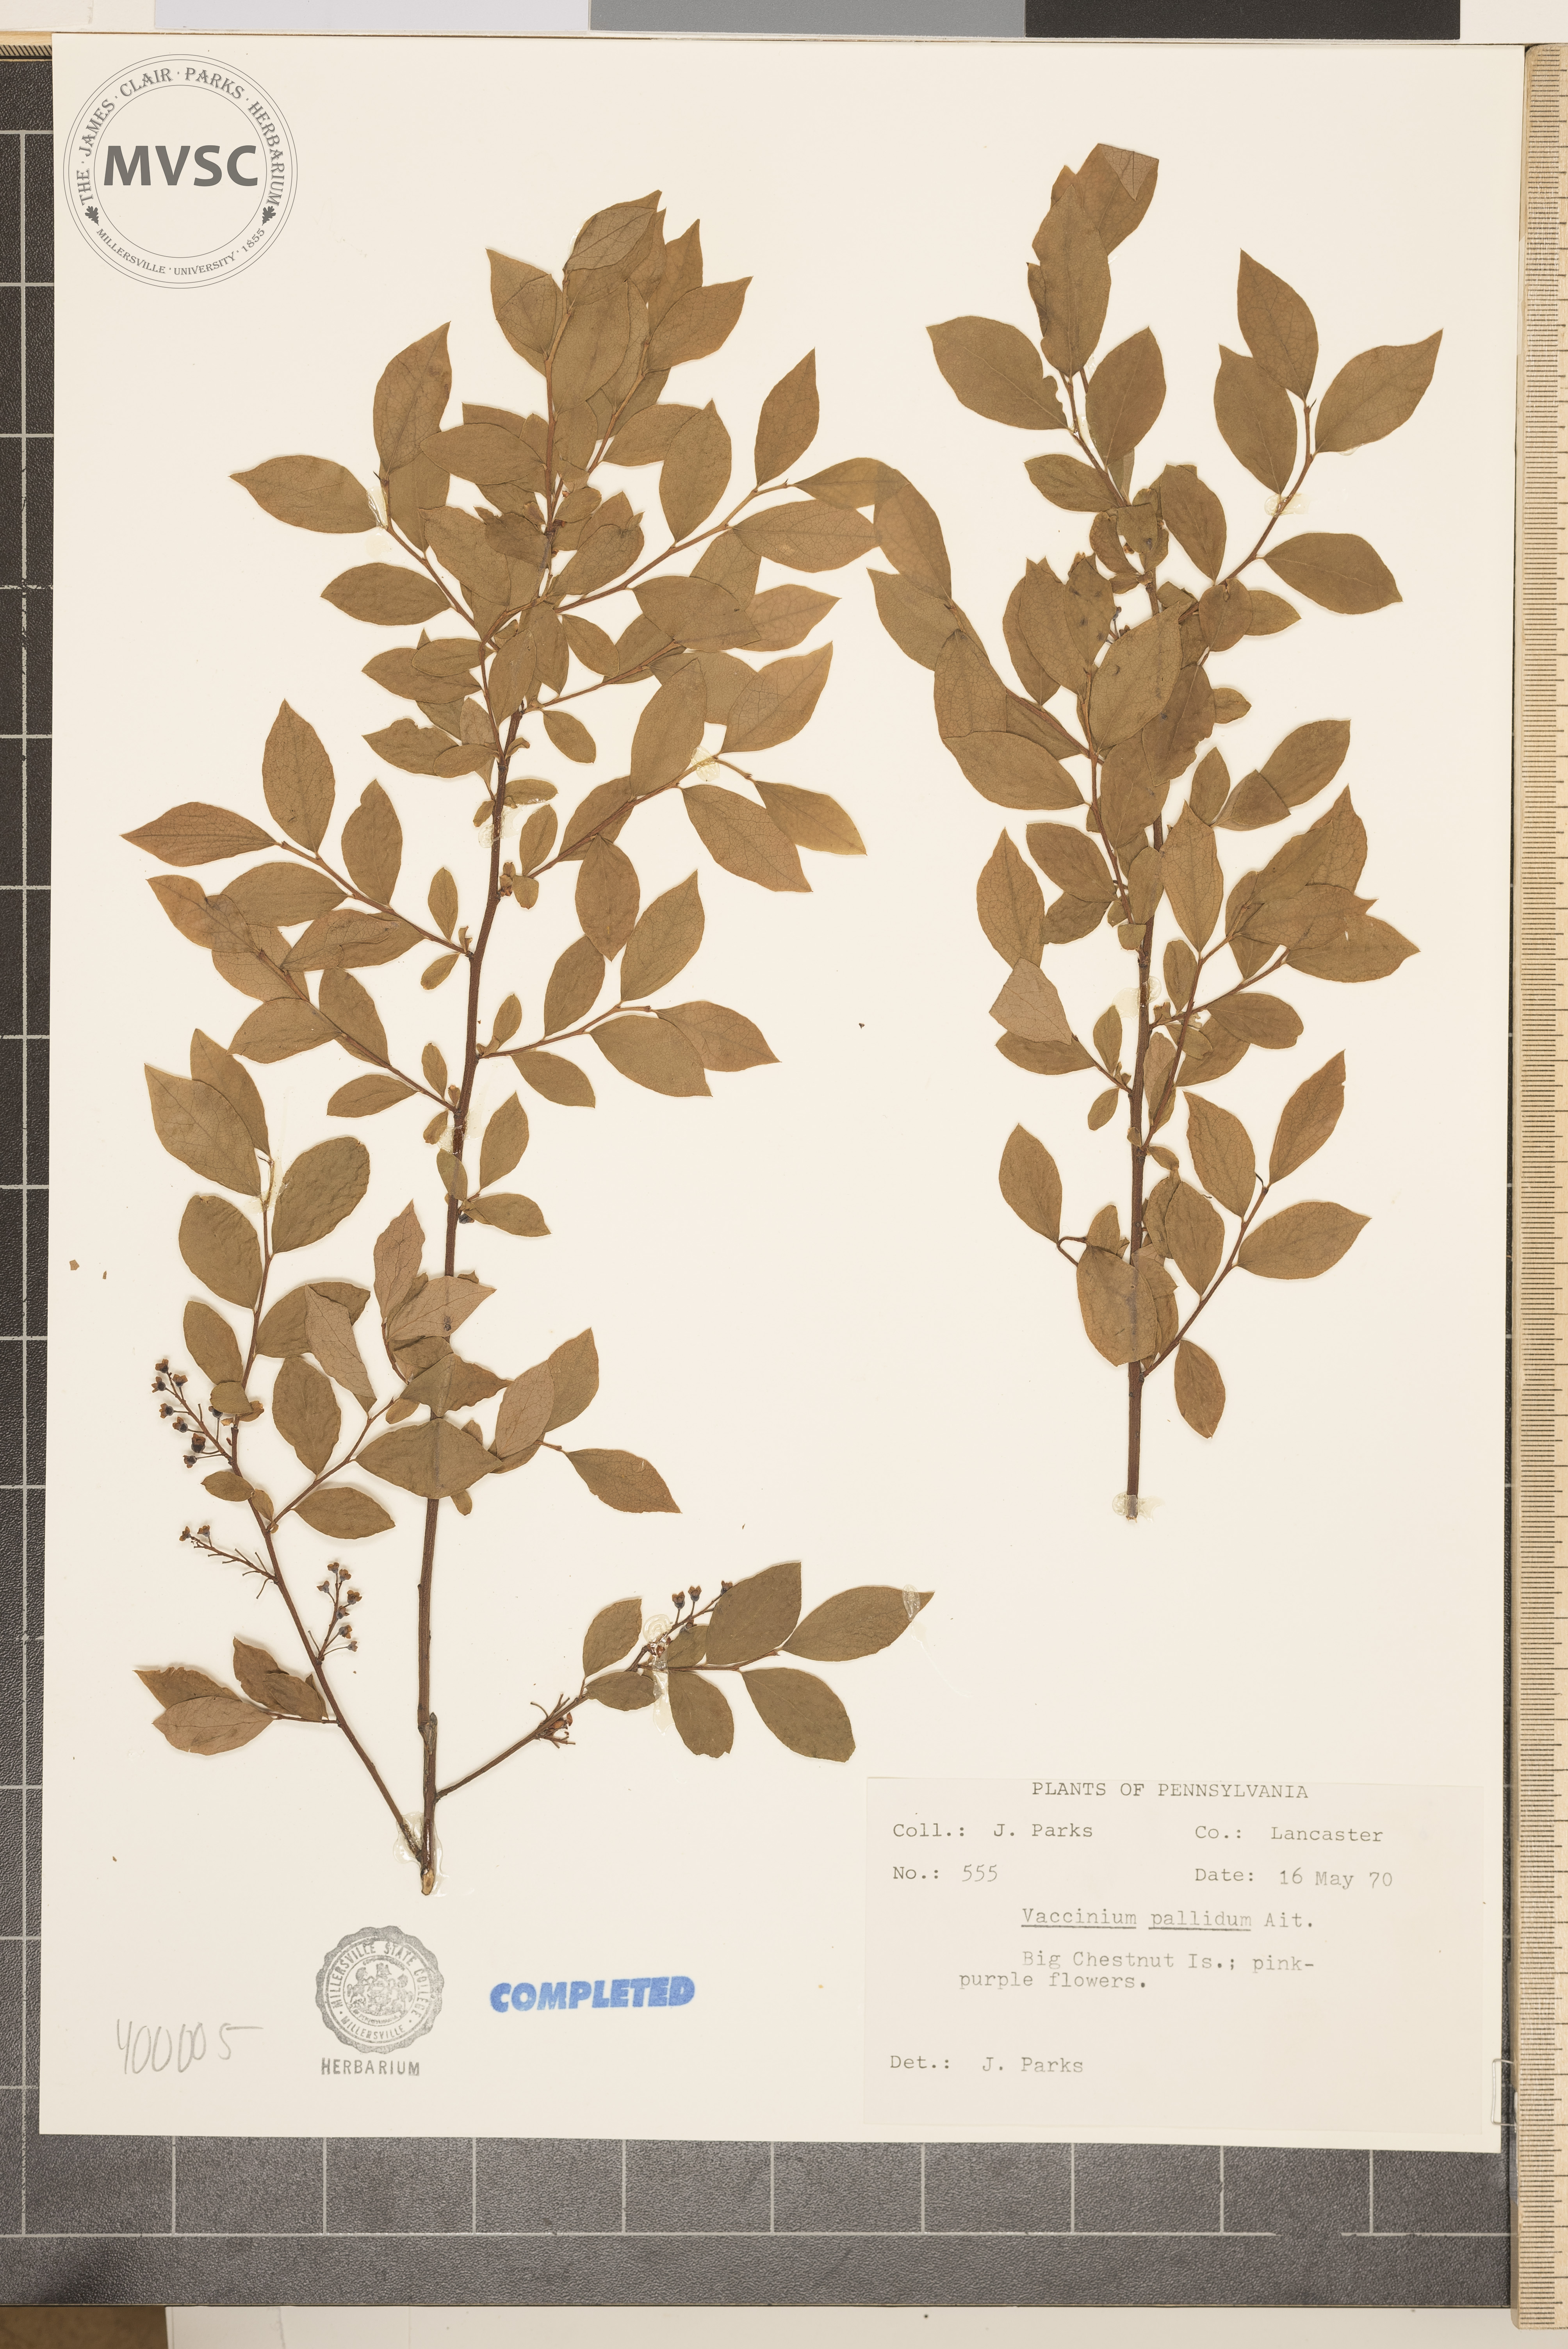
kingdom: Plantae
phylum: Tracheophyta
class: Magnoliopsida
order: Ericales
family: Ericaceae
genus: Vaccinium
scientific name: Vaccinium pallidum
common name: blueberry
